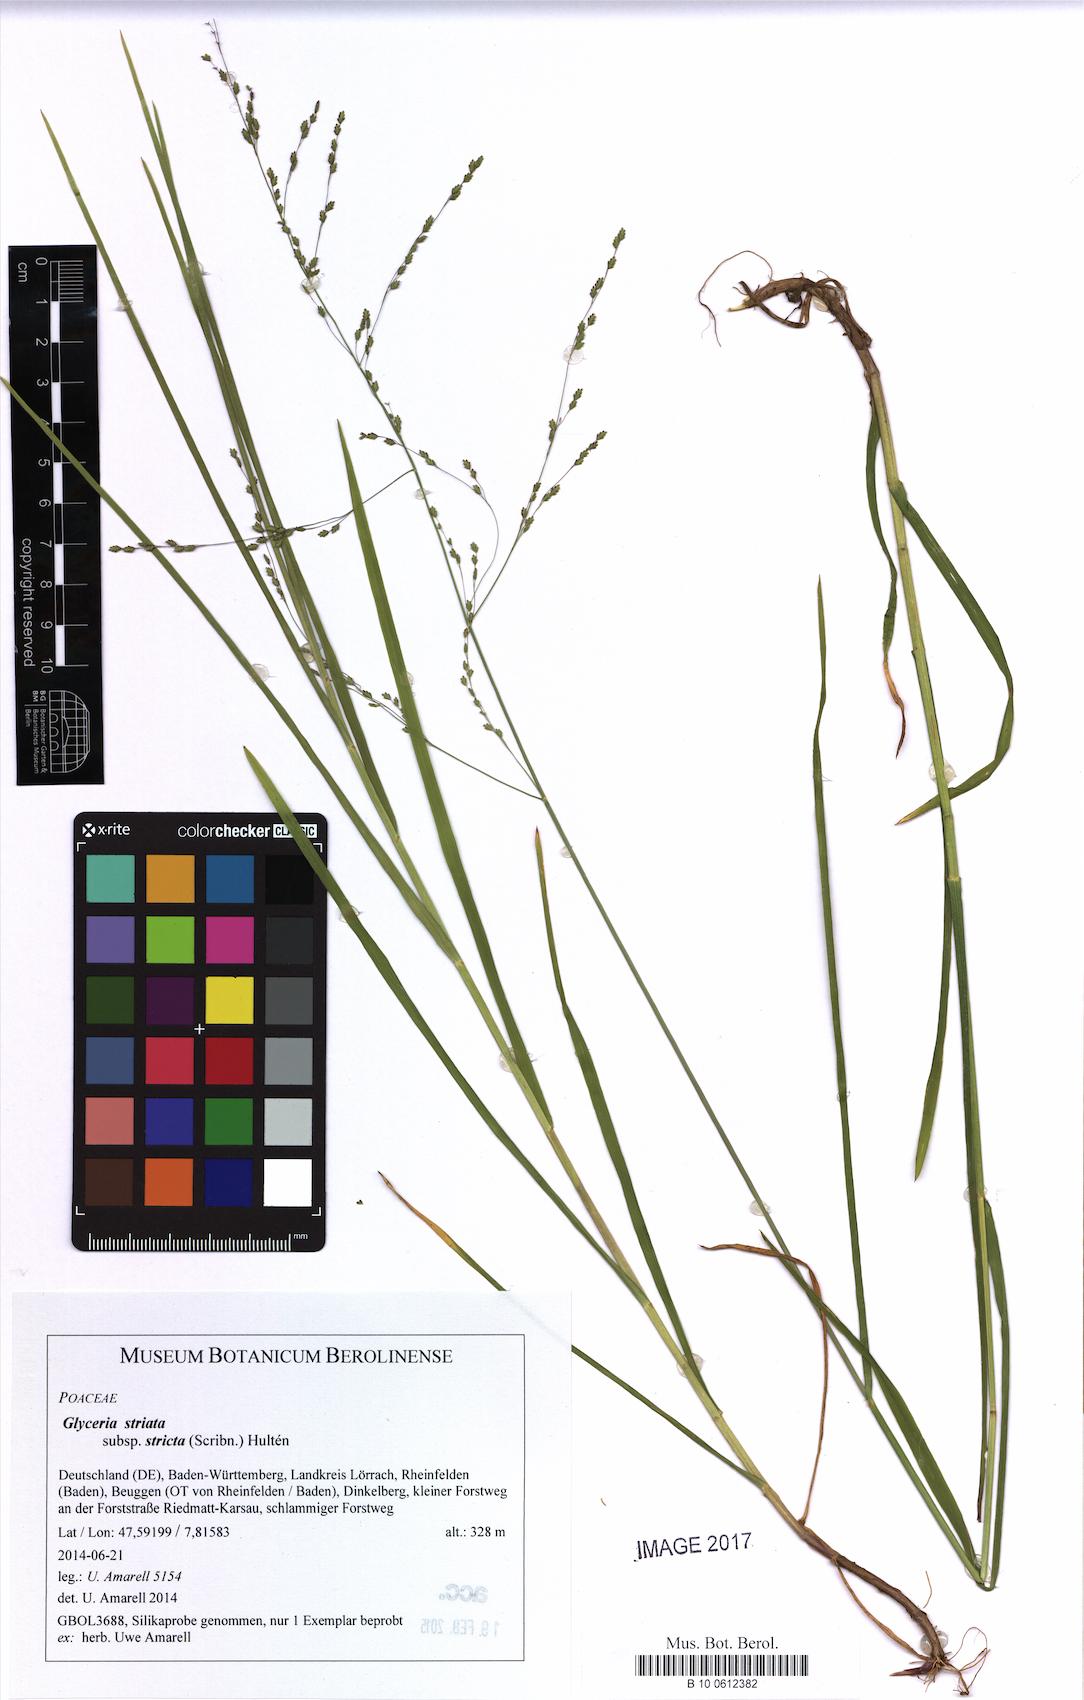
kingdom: Plantae
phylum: Tracheophyta
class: Liliopsida
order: Poales
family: Poaceae
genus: Glyceria
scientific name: Glyceria striata
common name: Fowl manna grass
